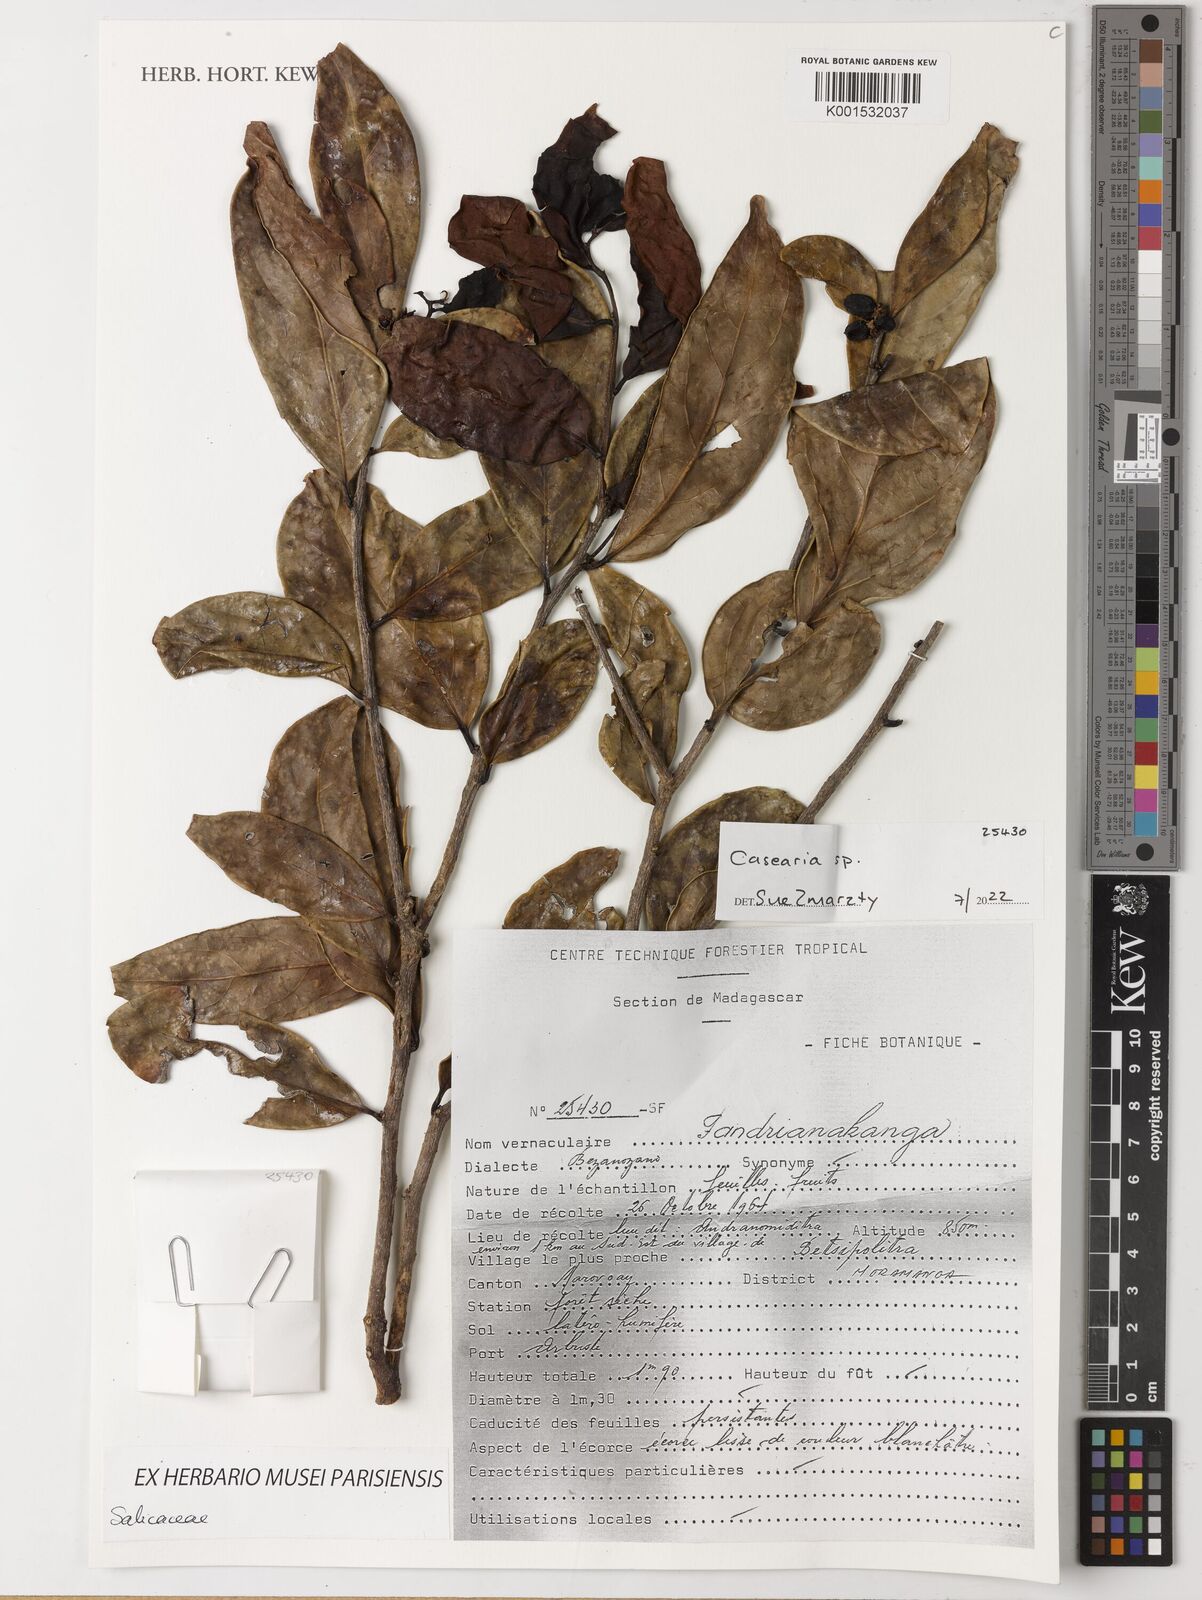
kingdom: Plantae
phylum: Tracheophyta
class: Magnoliopsida
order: Malpighiales
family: Salicaceae
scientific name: Salicaceae
